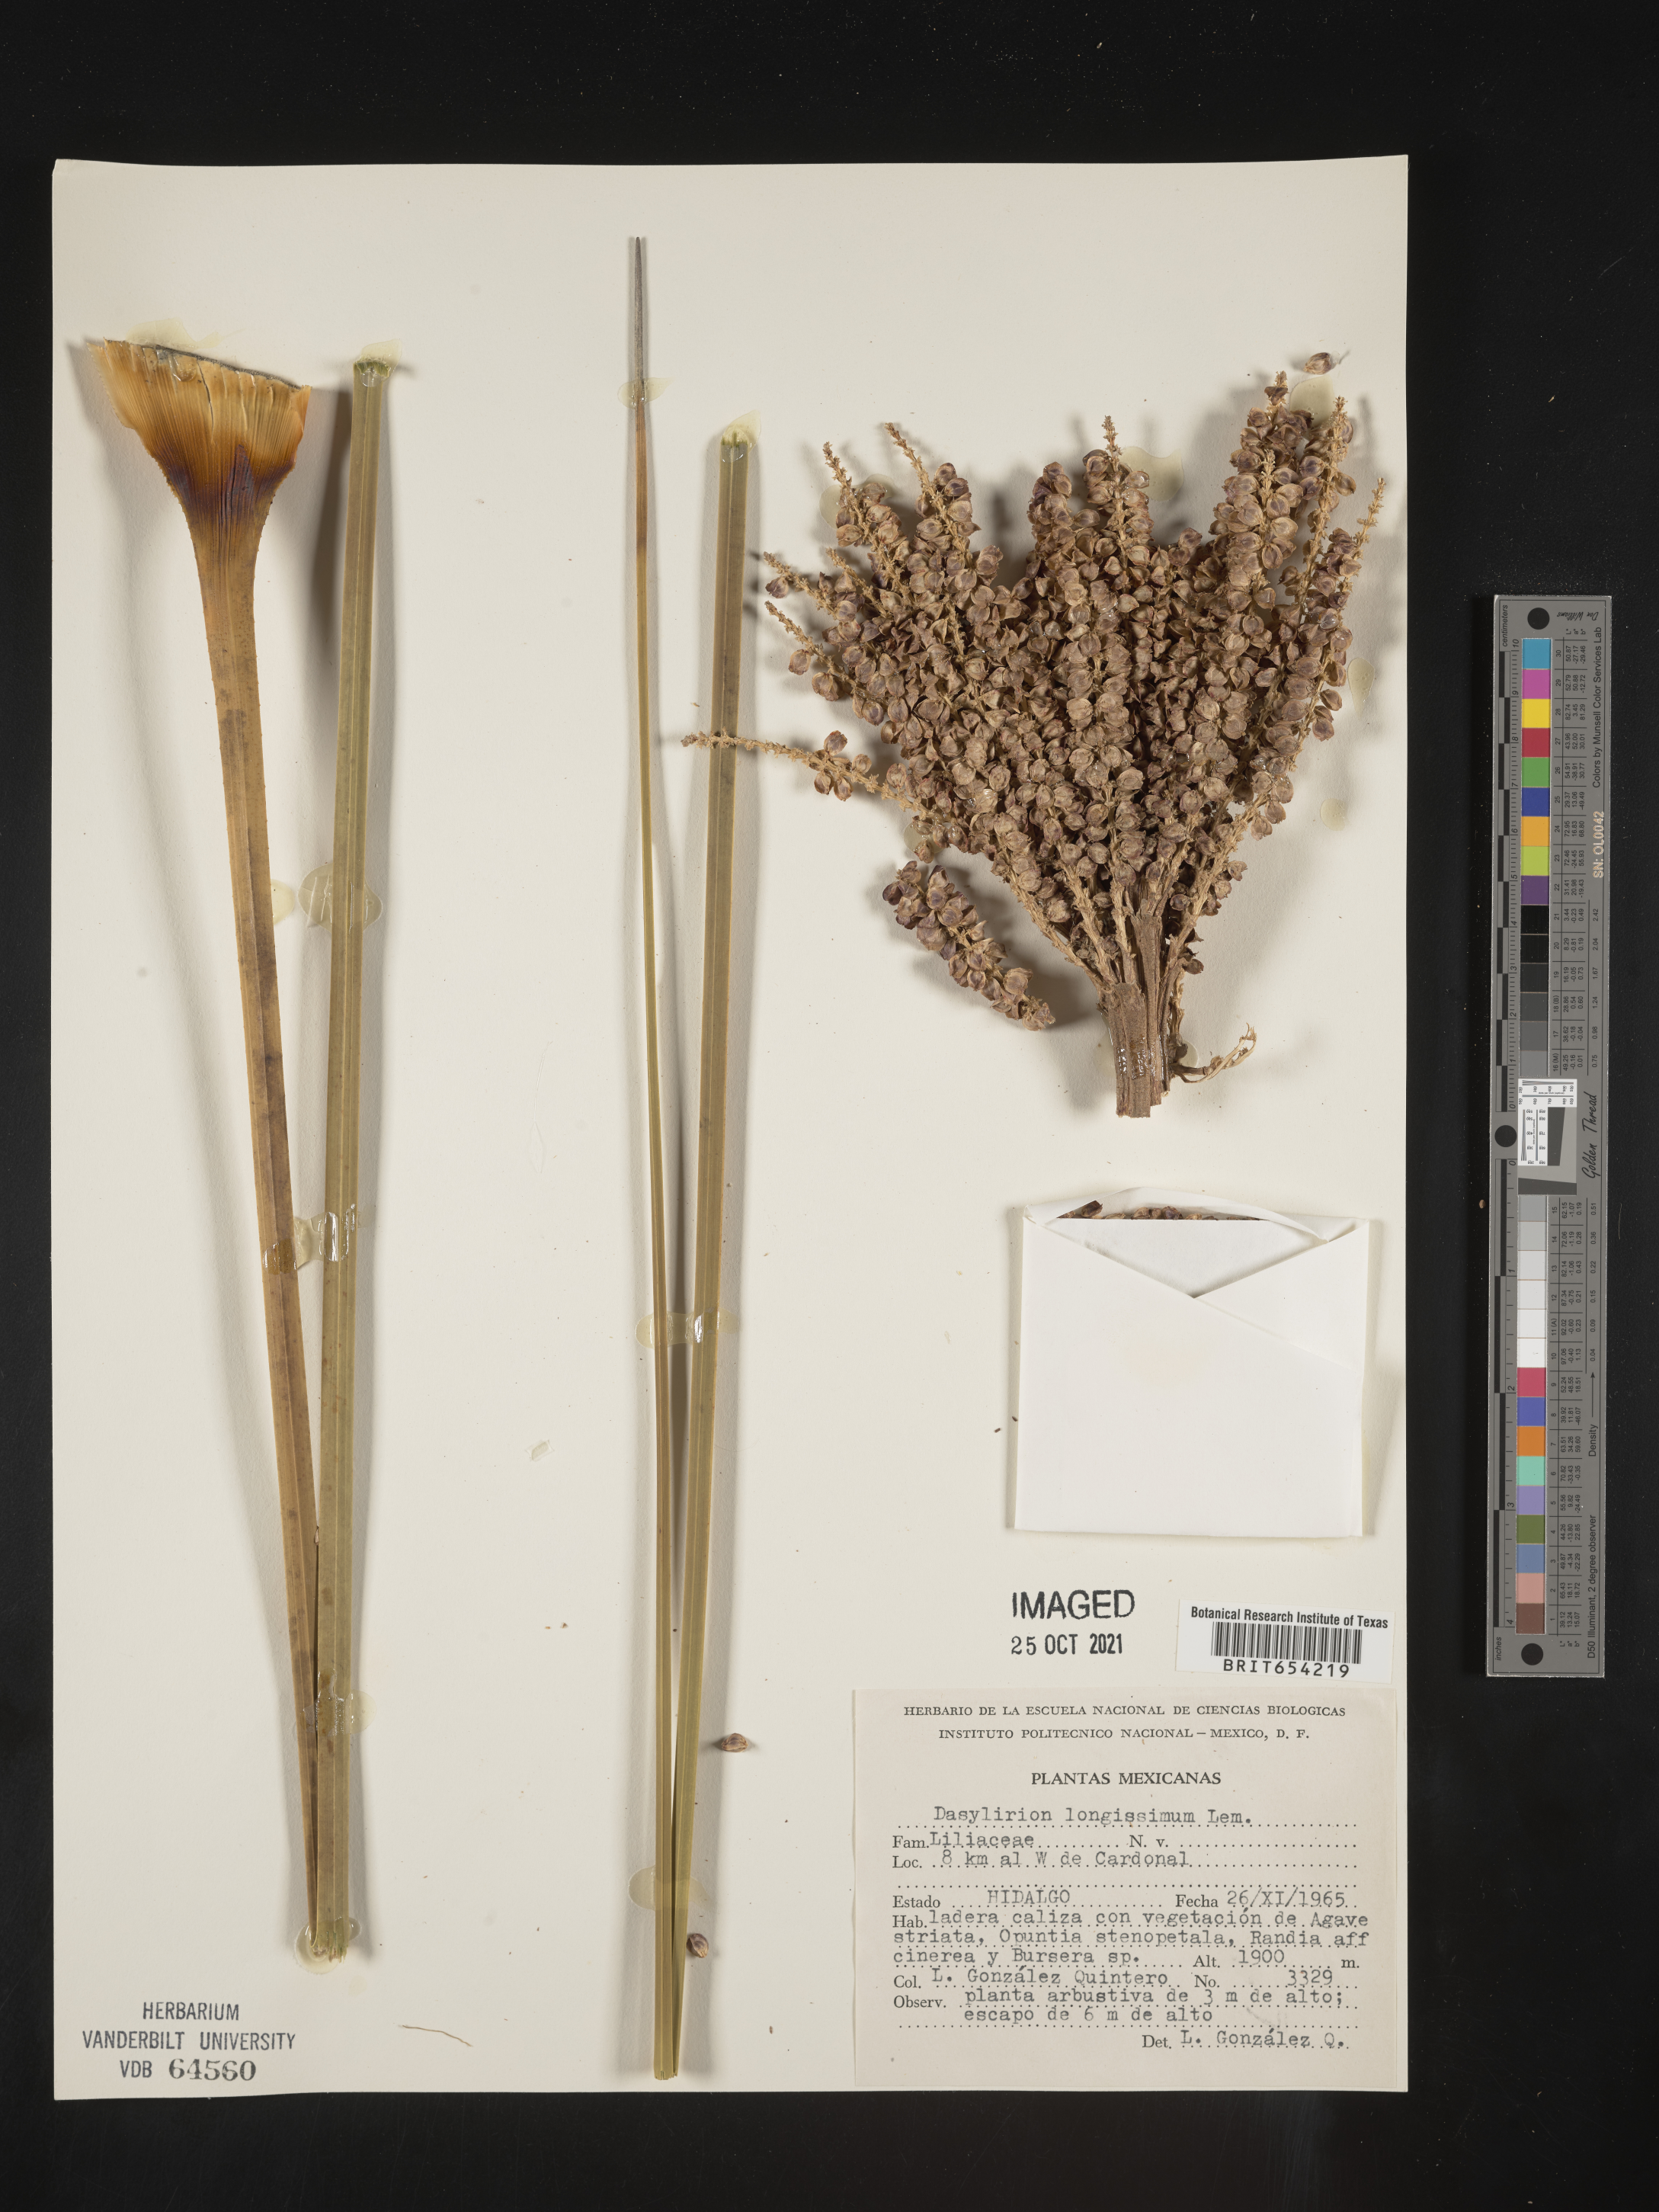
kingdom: Plantae
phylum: Tracheophyta
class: Liliopsida
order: Asparagales
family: Asparagaceae
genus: Dasylirion
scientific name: Dasylirion
